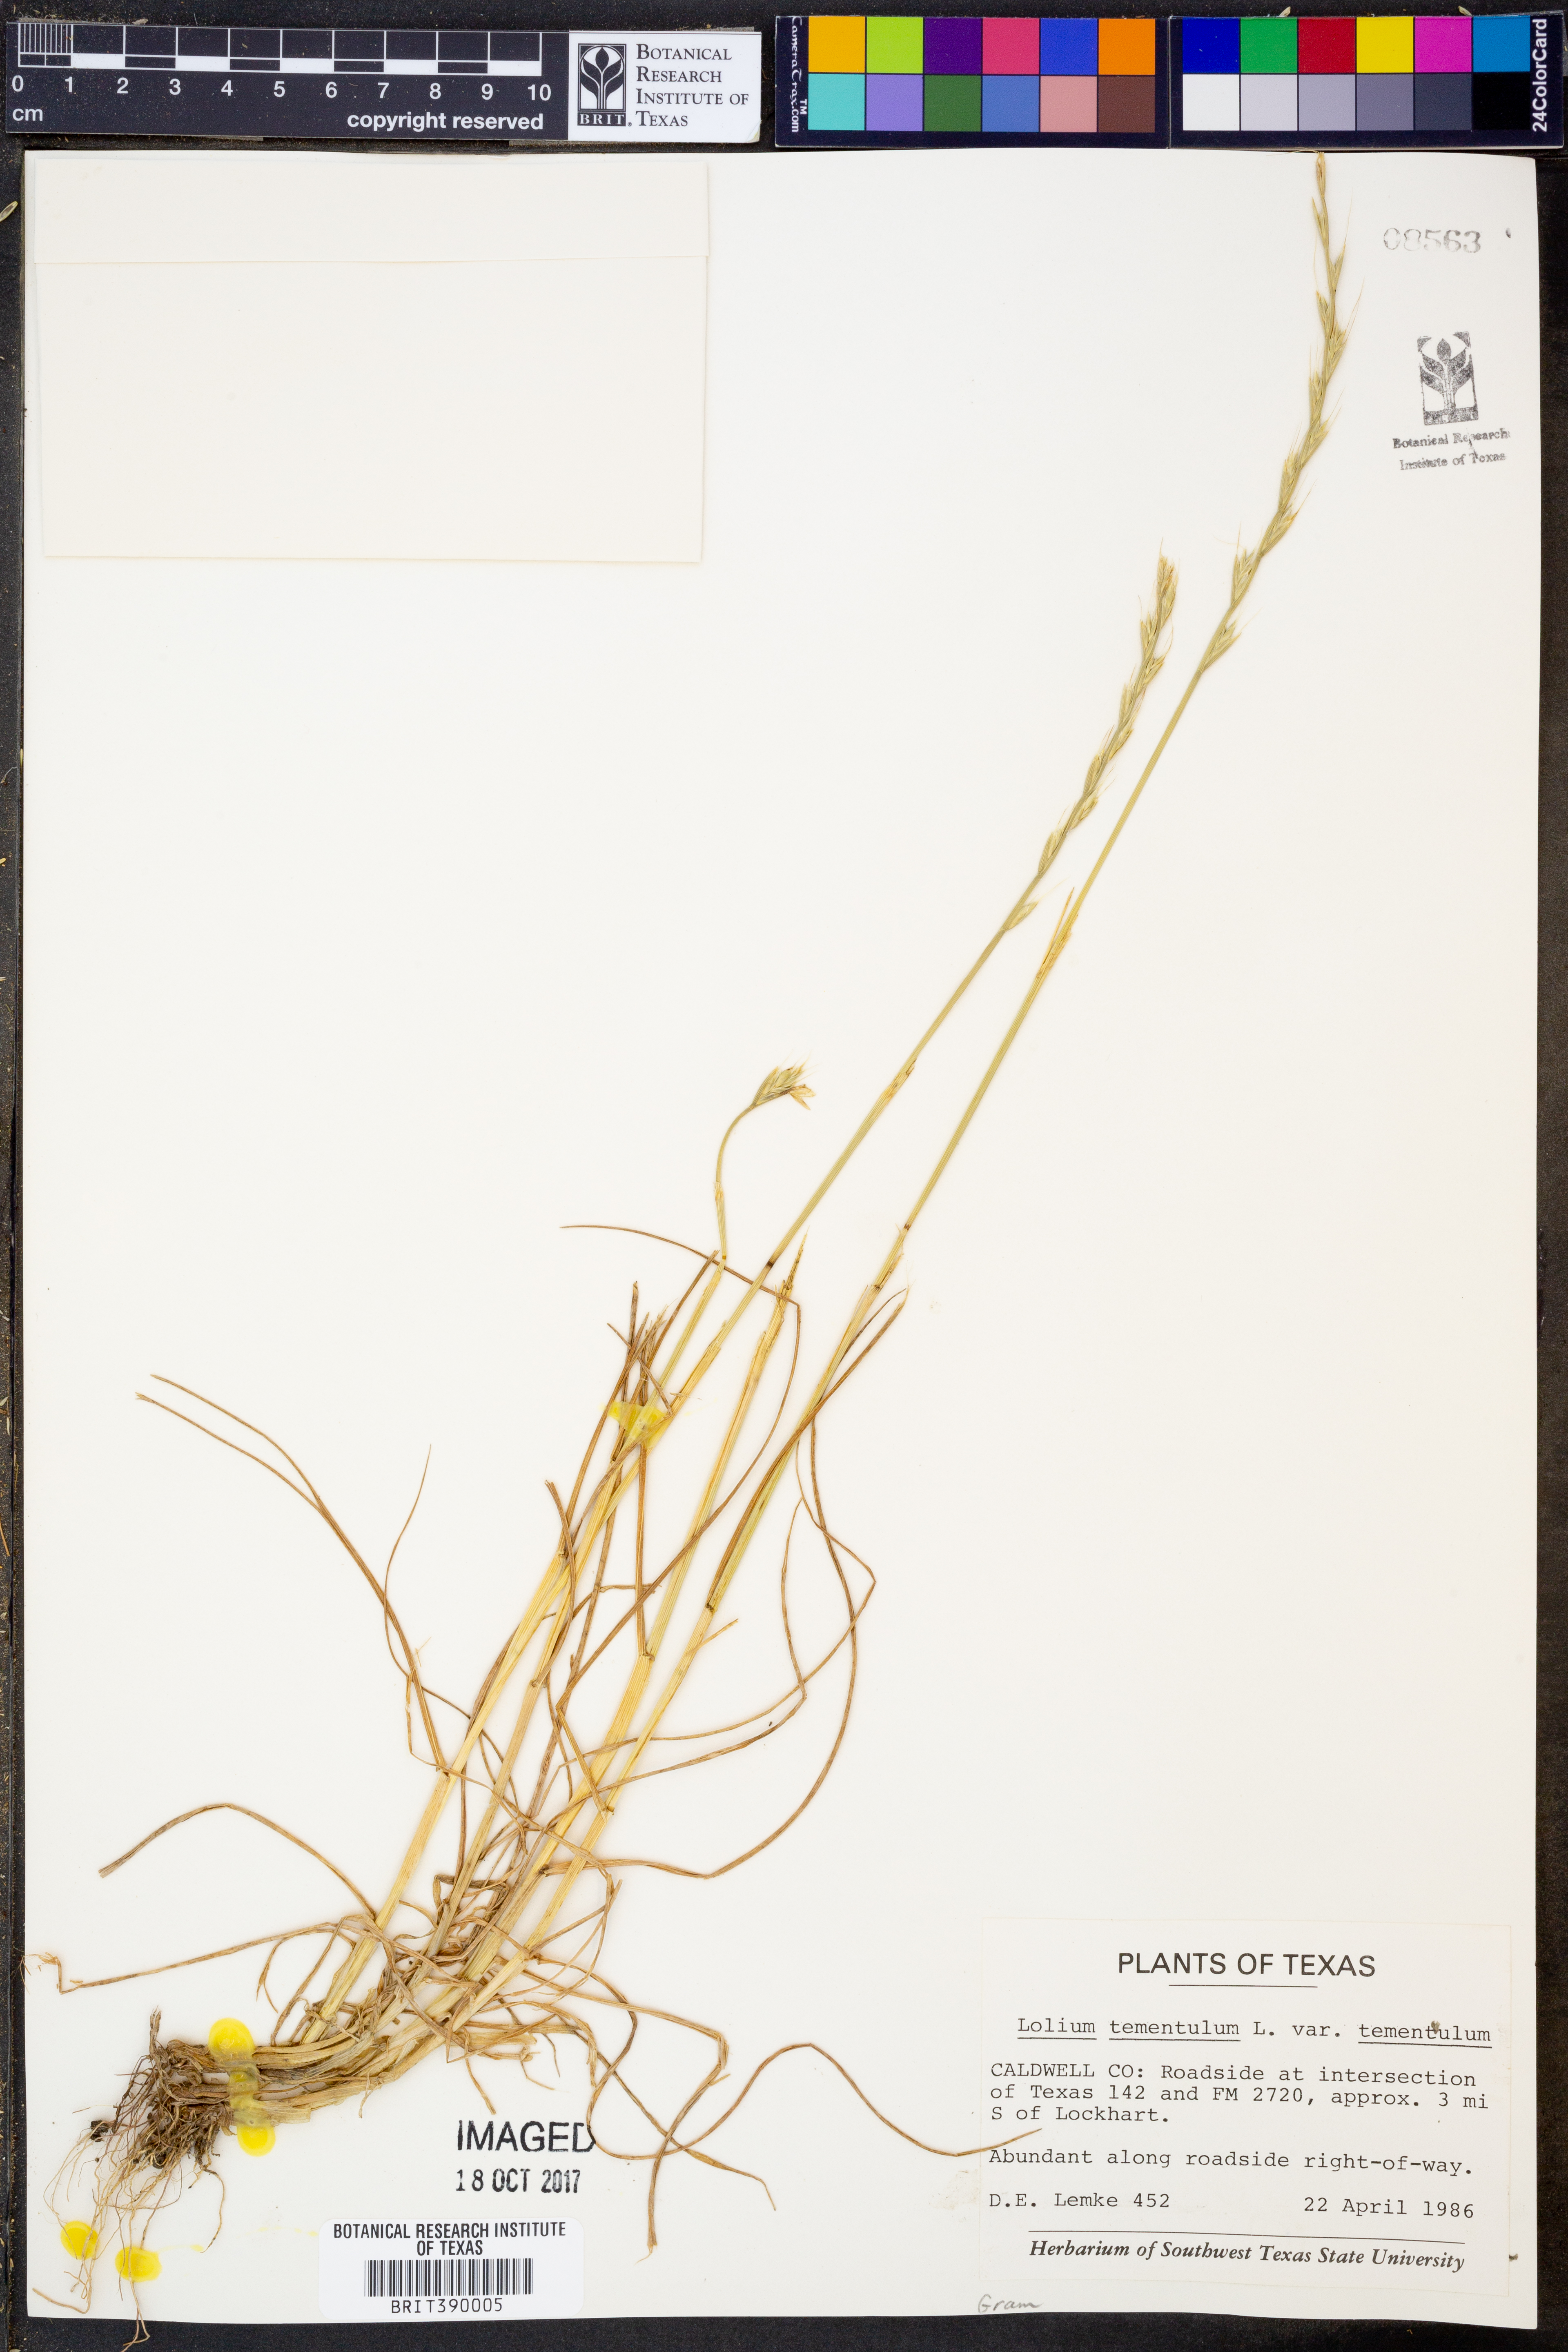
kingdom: Plantae
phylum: Tracheophyta
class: Liliopsida
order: Poales
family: Poaceae
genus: Lolium
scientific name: Lolium temulentum
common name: Darnel
